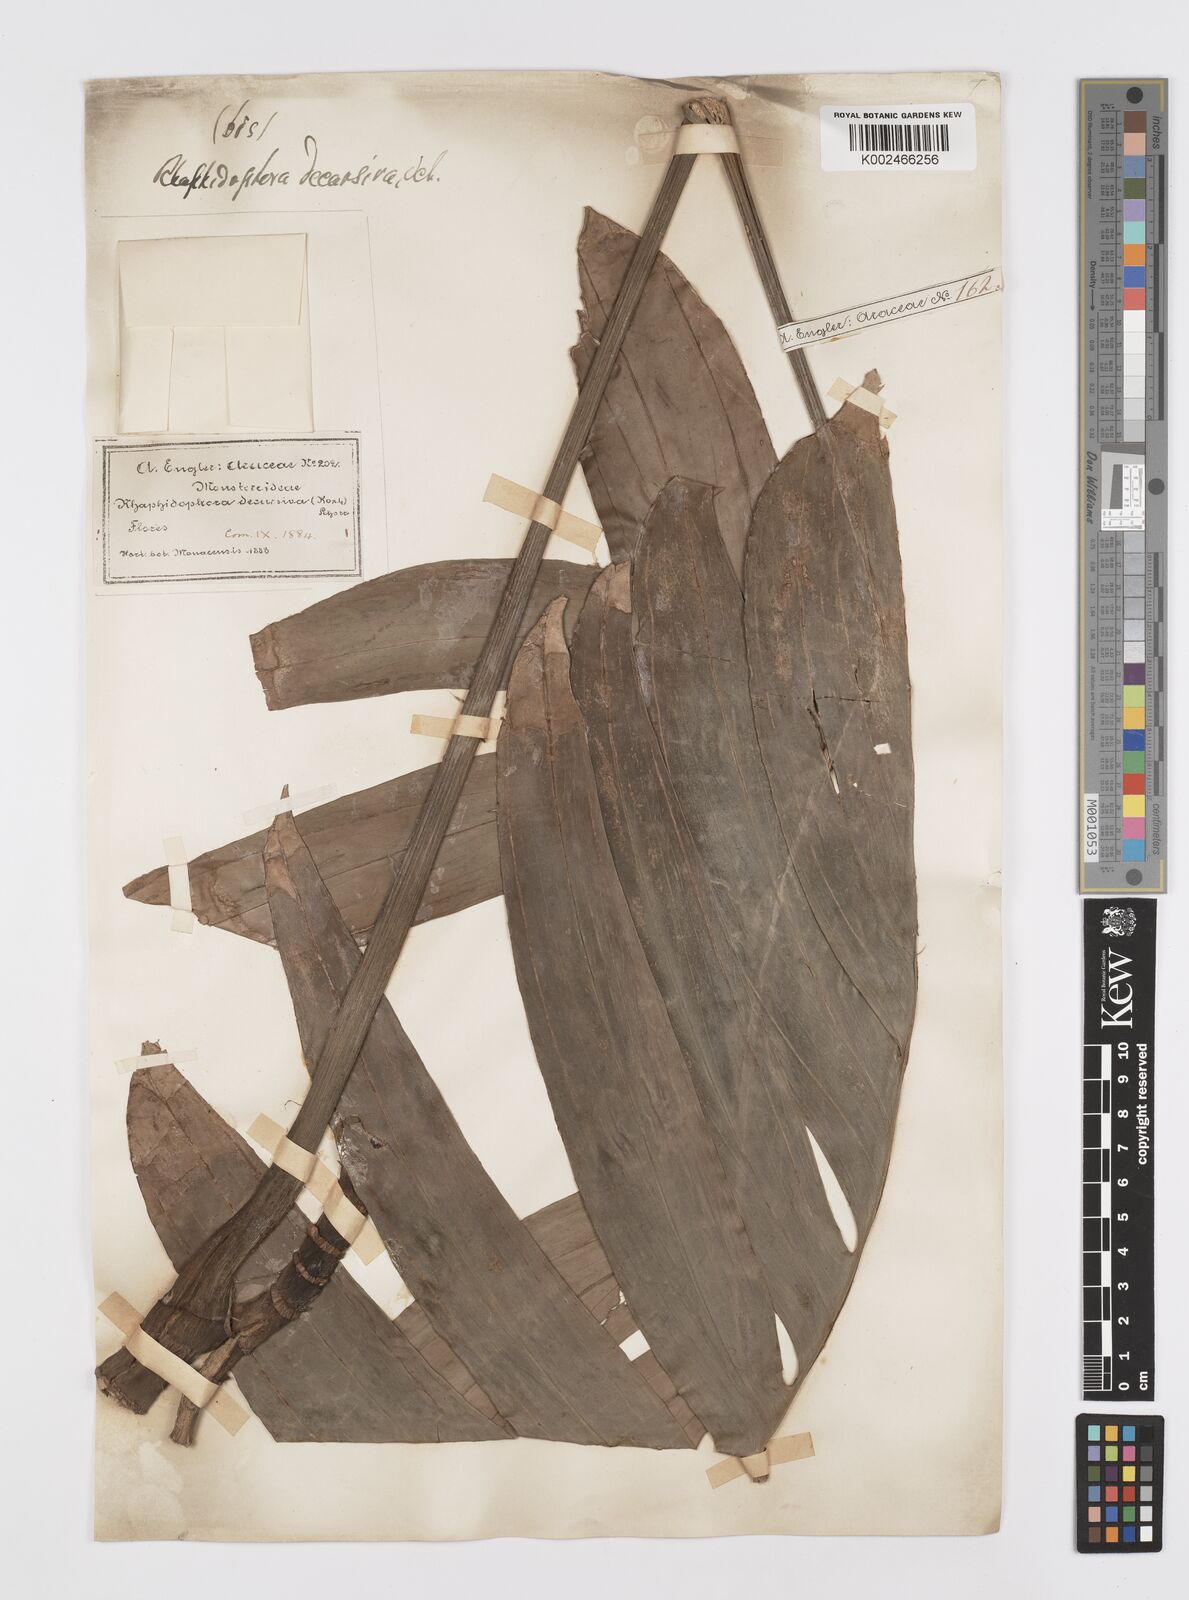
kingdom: Plantae
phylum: Tracheophyta
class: Liliopsida
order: Alismatales
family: Araceae
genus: Rhaphidophora
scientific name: Rhaphidophora decursiva
